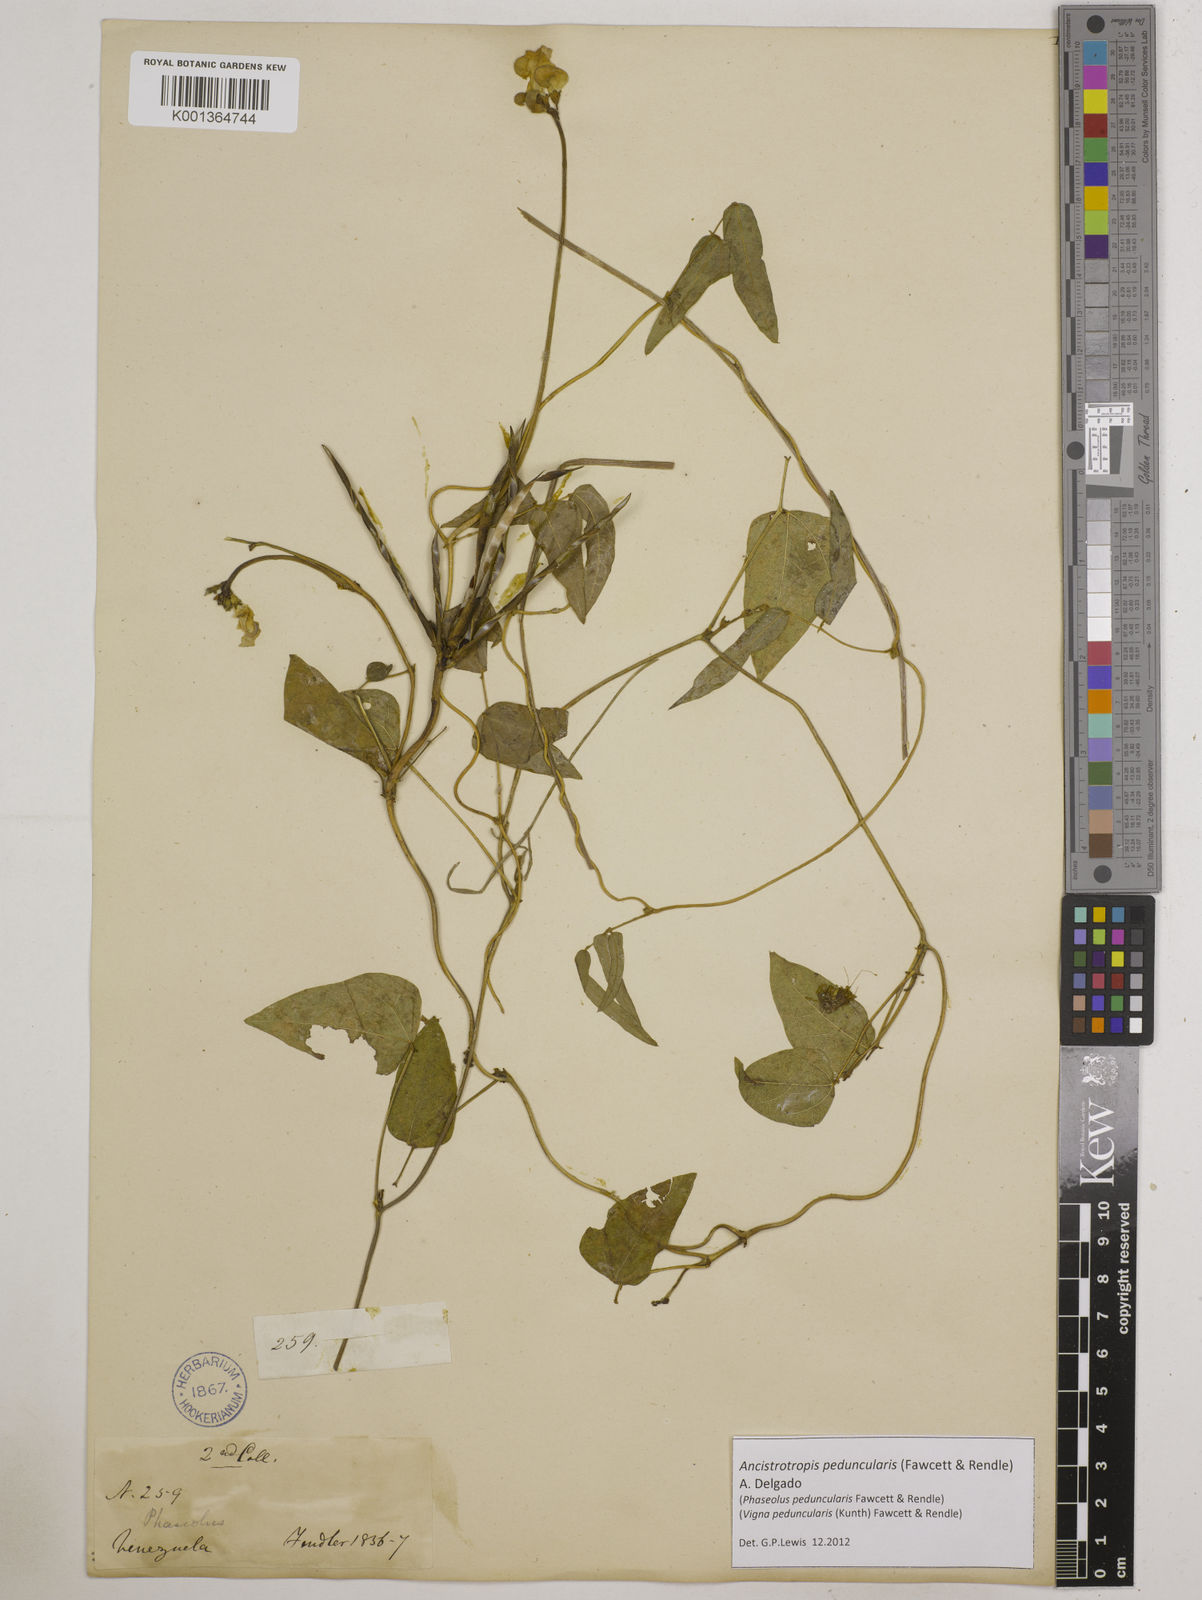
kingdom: Plantae
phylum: Tracheophyta
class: Magnoliopsida
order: Fabales
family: Fabaceae
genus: Ancistrotropis
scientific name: Ancistrotropis peduncularis
